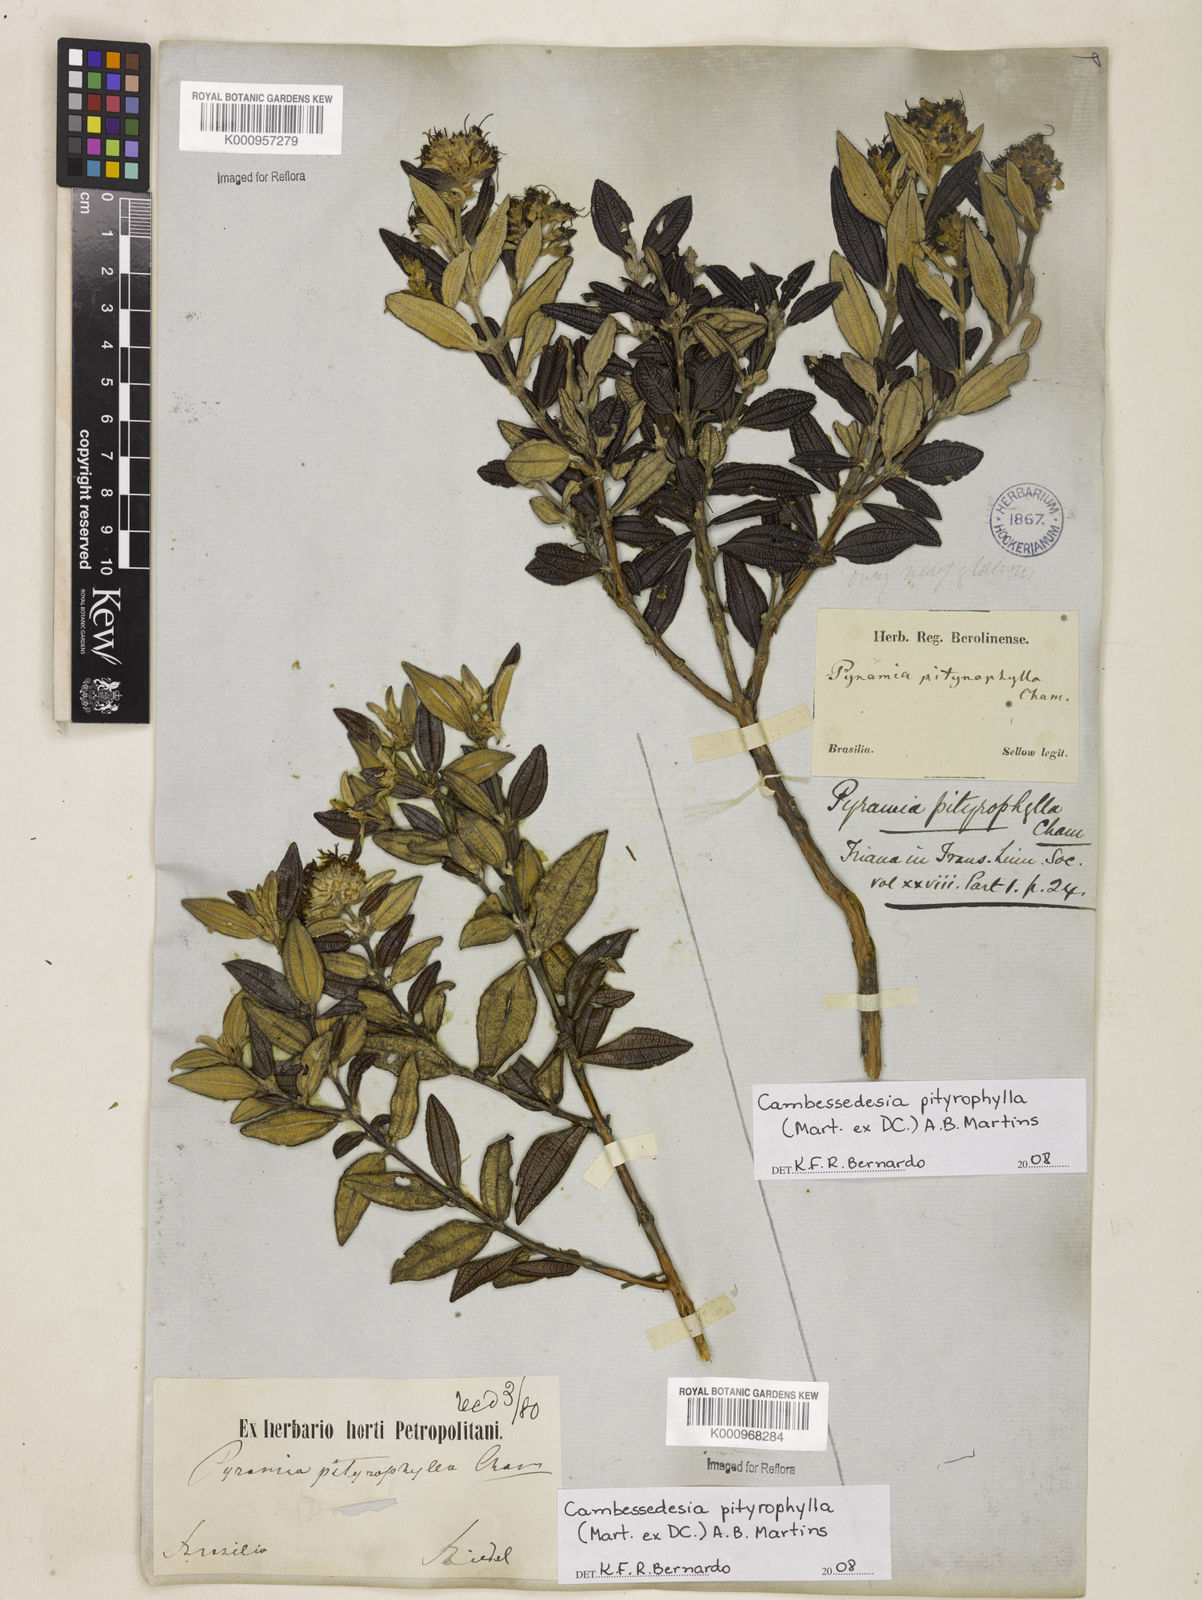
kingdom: Plantae
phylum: Tracheophyta
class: Magnoliopsida
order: Myrtales
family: Melastomataceae
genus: Cambessedesia
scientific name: Cambessedesia pityrophylla
